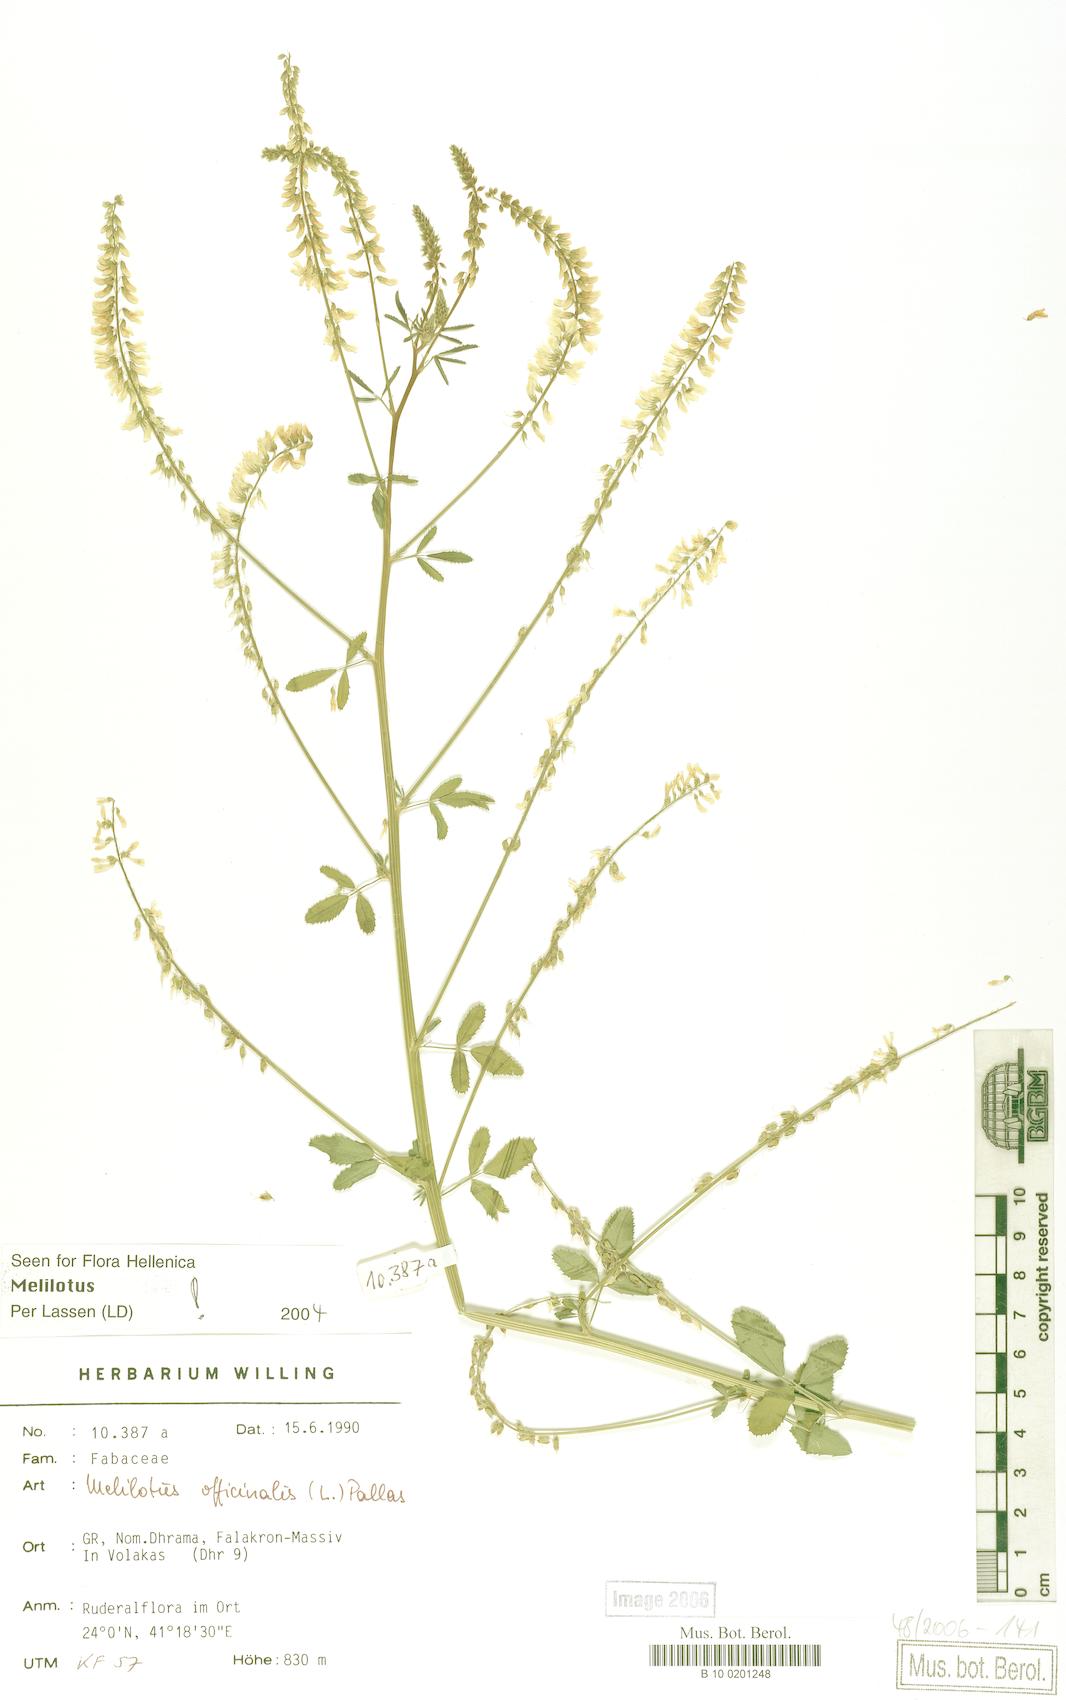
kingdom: Plantae
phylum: Tracheophyta
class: Magnoliopsida
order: Fabales
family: Fabaceae
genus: Melilotus
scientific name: Melilotus officinalis
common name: Sweetclover
